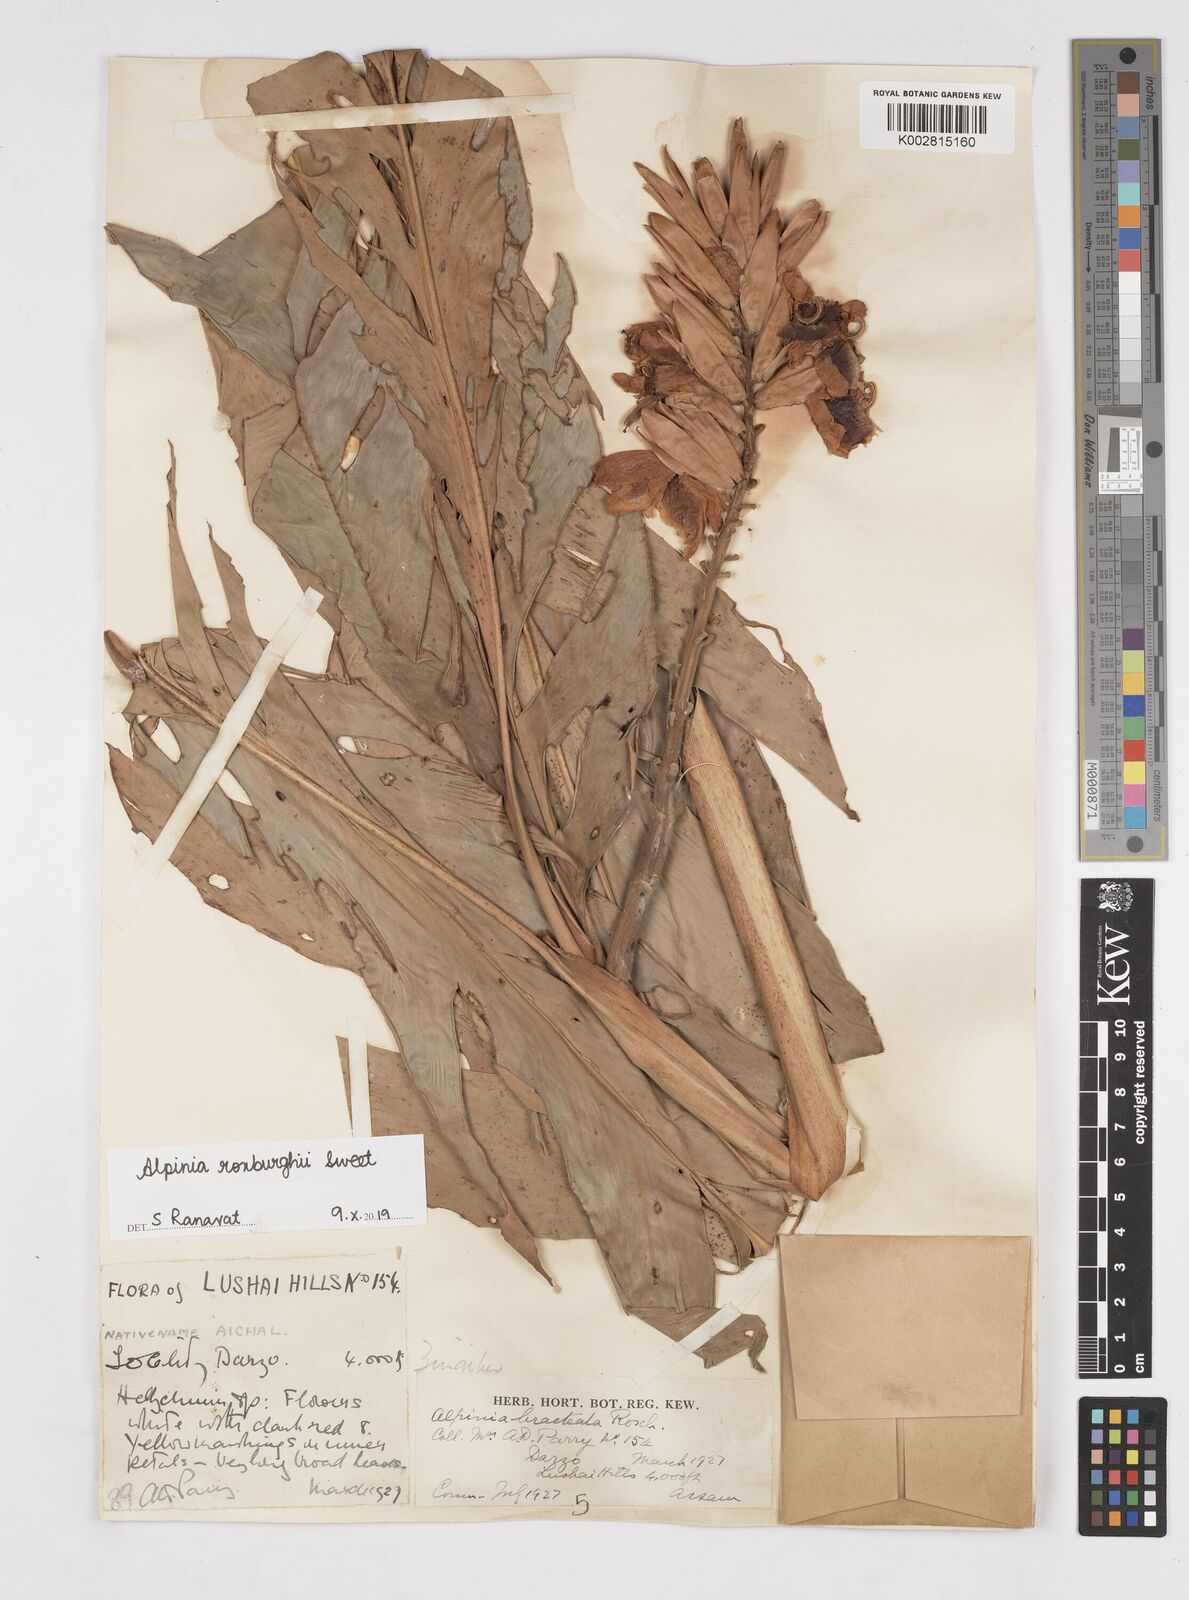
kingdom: Plantae
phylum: Tracheophyta
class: Liliopsida
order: Zingiberales
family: Zingiberaceae
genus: Alpinia
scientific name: Alpinia roxburghii
